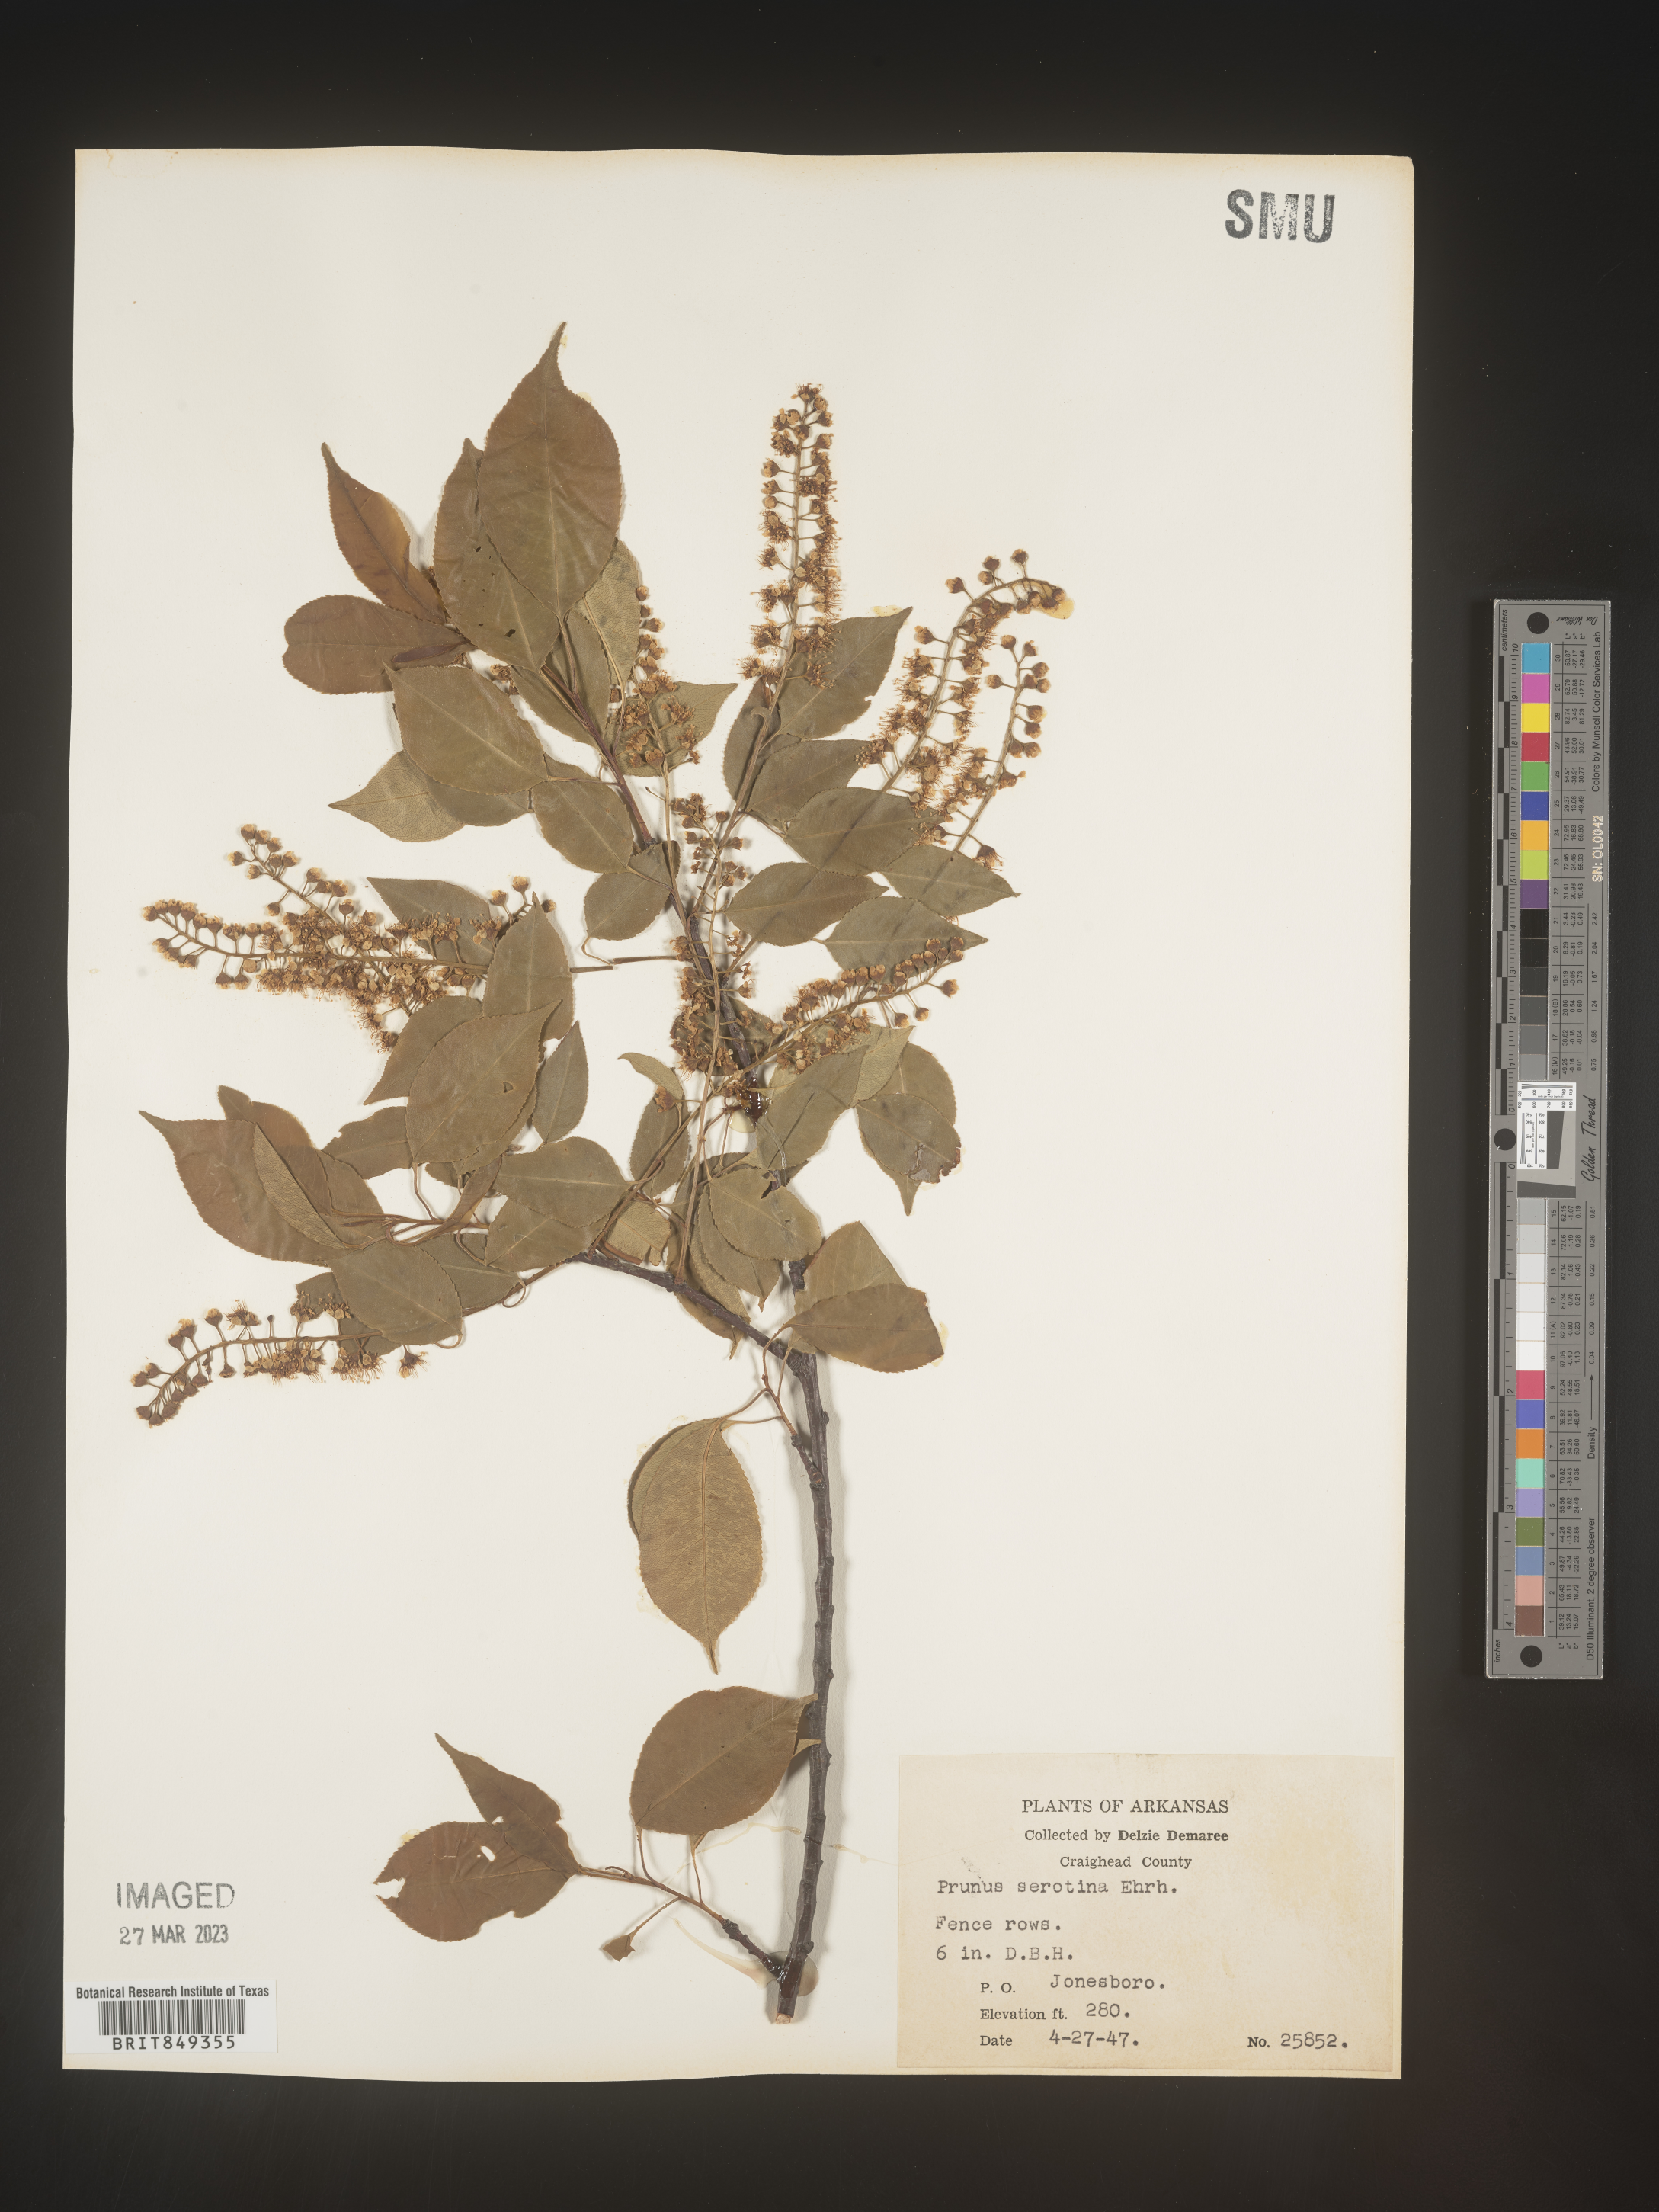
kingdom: Plantae
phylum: Tracheophyta
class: Magnoliopsida
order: Rosales
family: Rosaceae
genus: Prunus
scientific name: Prunus serotina
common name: Black cherry
